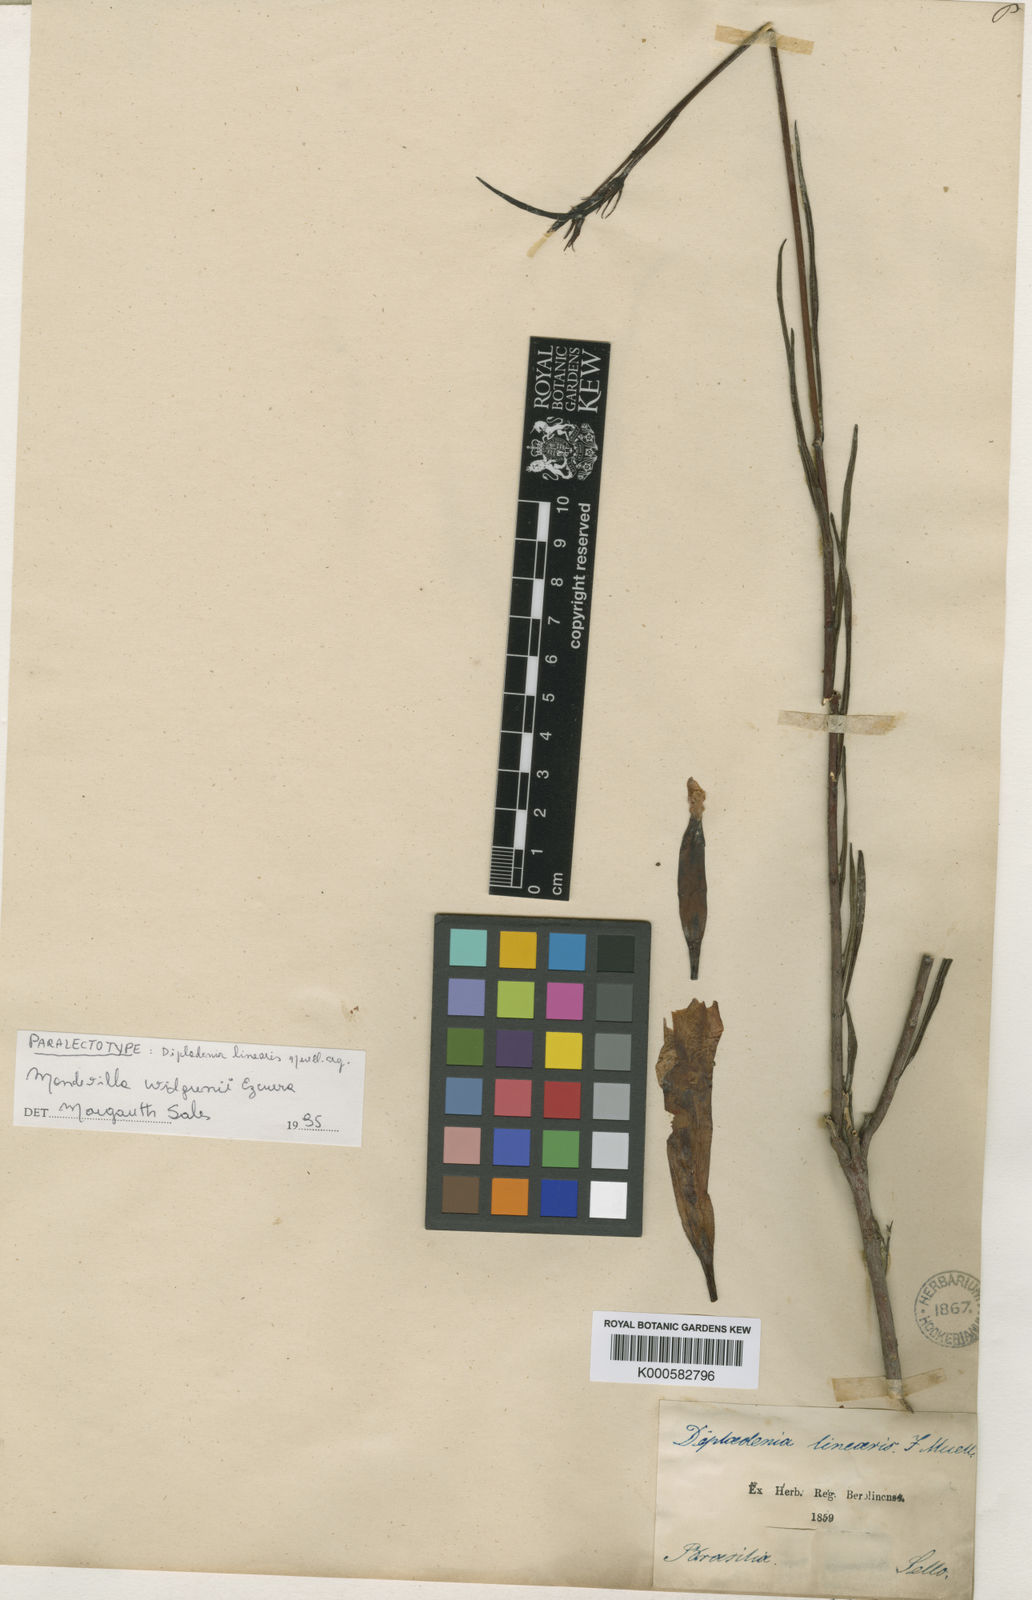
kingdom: Plantae
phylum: Tracheophyta
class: Magnoliopsida
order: Gentianales
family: Apocynaceae
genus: Mandevilla
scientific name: Mandevilla widgrenii
